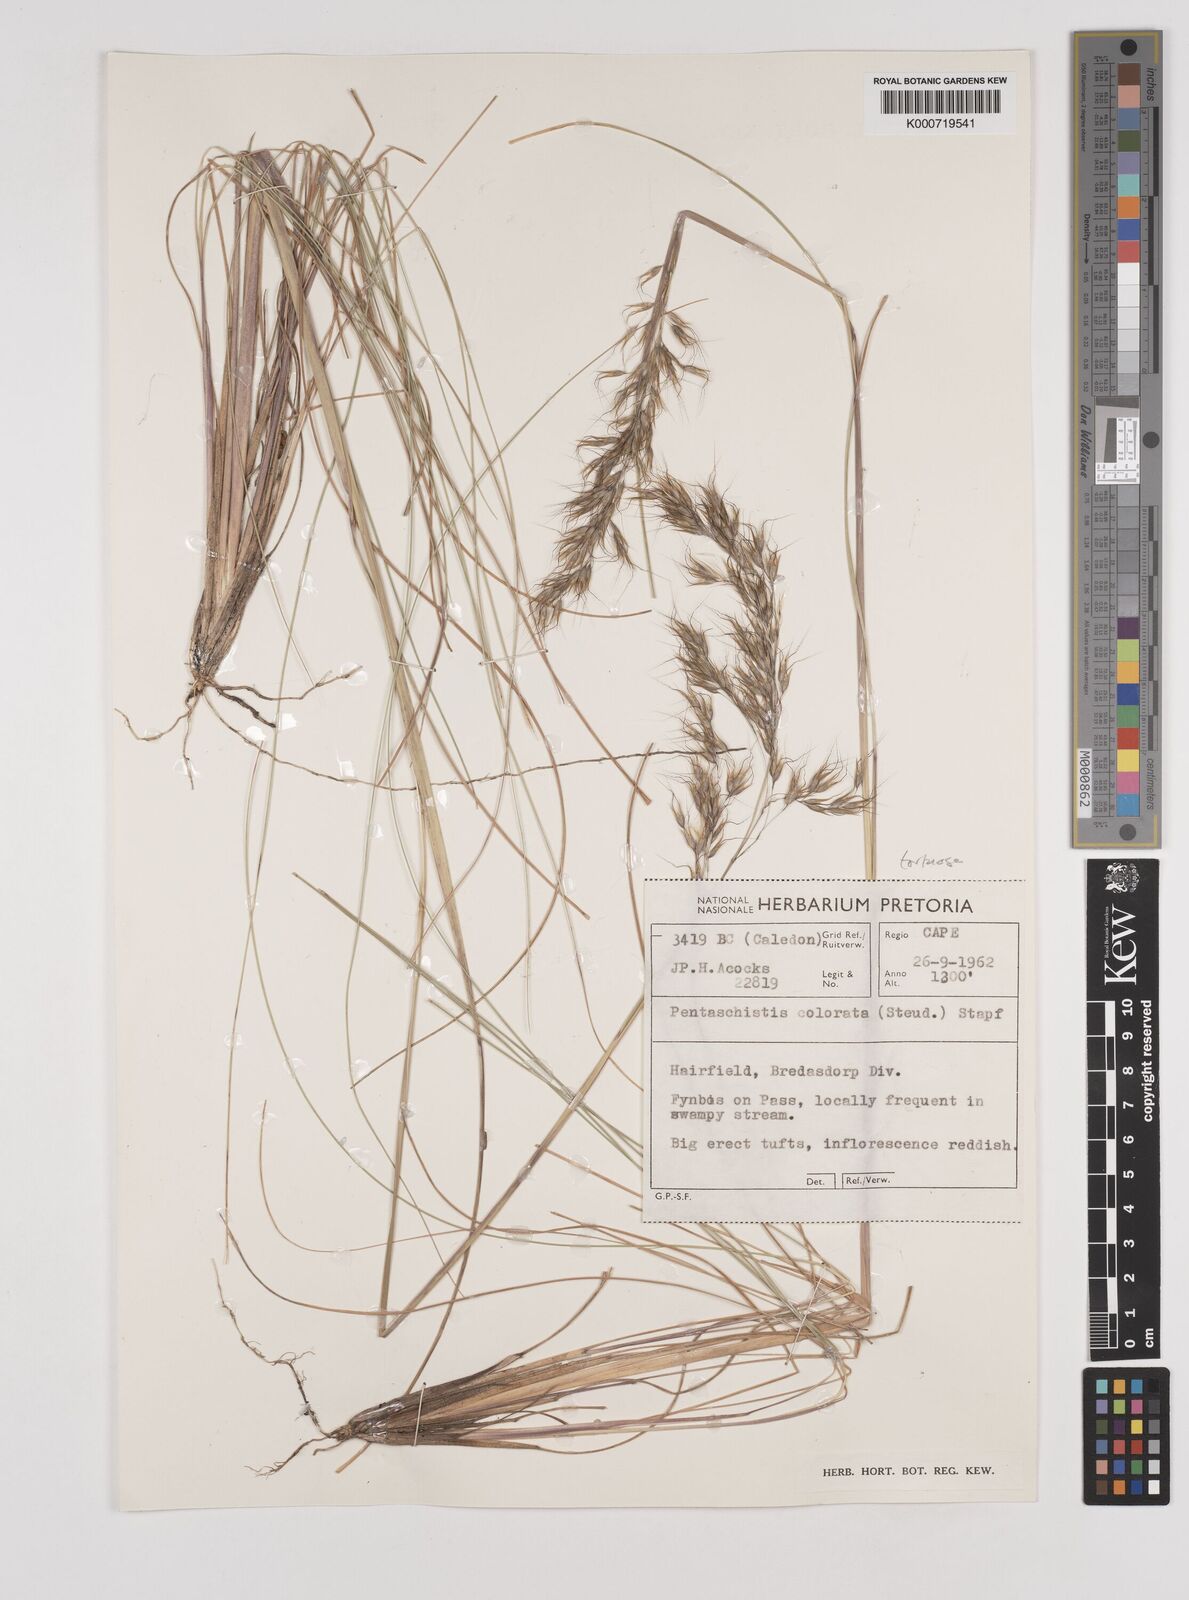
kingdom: Plantae
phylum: Tracheophyta
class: Liliopsida
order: Poales
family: Poaceae
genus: Pentameris
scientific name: Pentameris tortuosa
